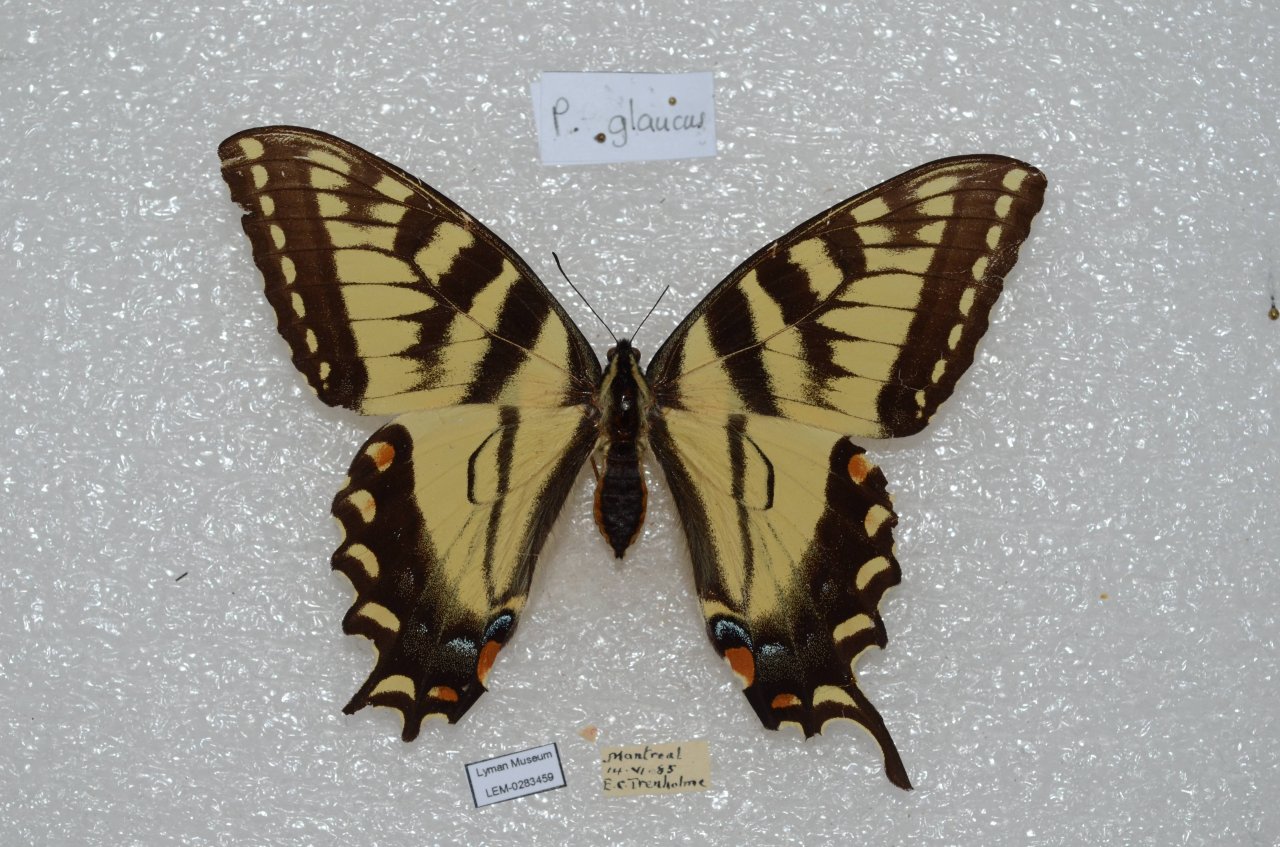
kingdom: Animalia
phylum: Arthropoda
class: Insecta
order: Lepidoptera
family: Papilionidae
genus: Pterourus
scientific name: Pterourus canadensis
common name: Canadian Tiger Swallowtail
